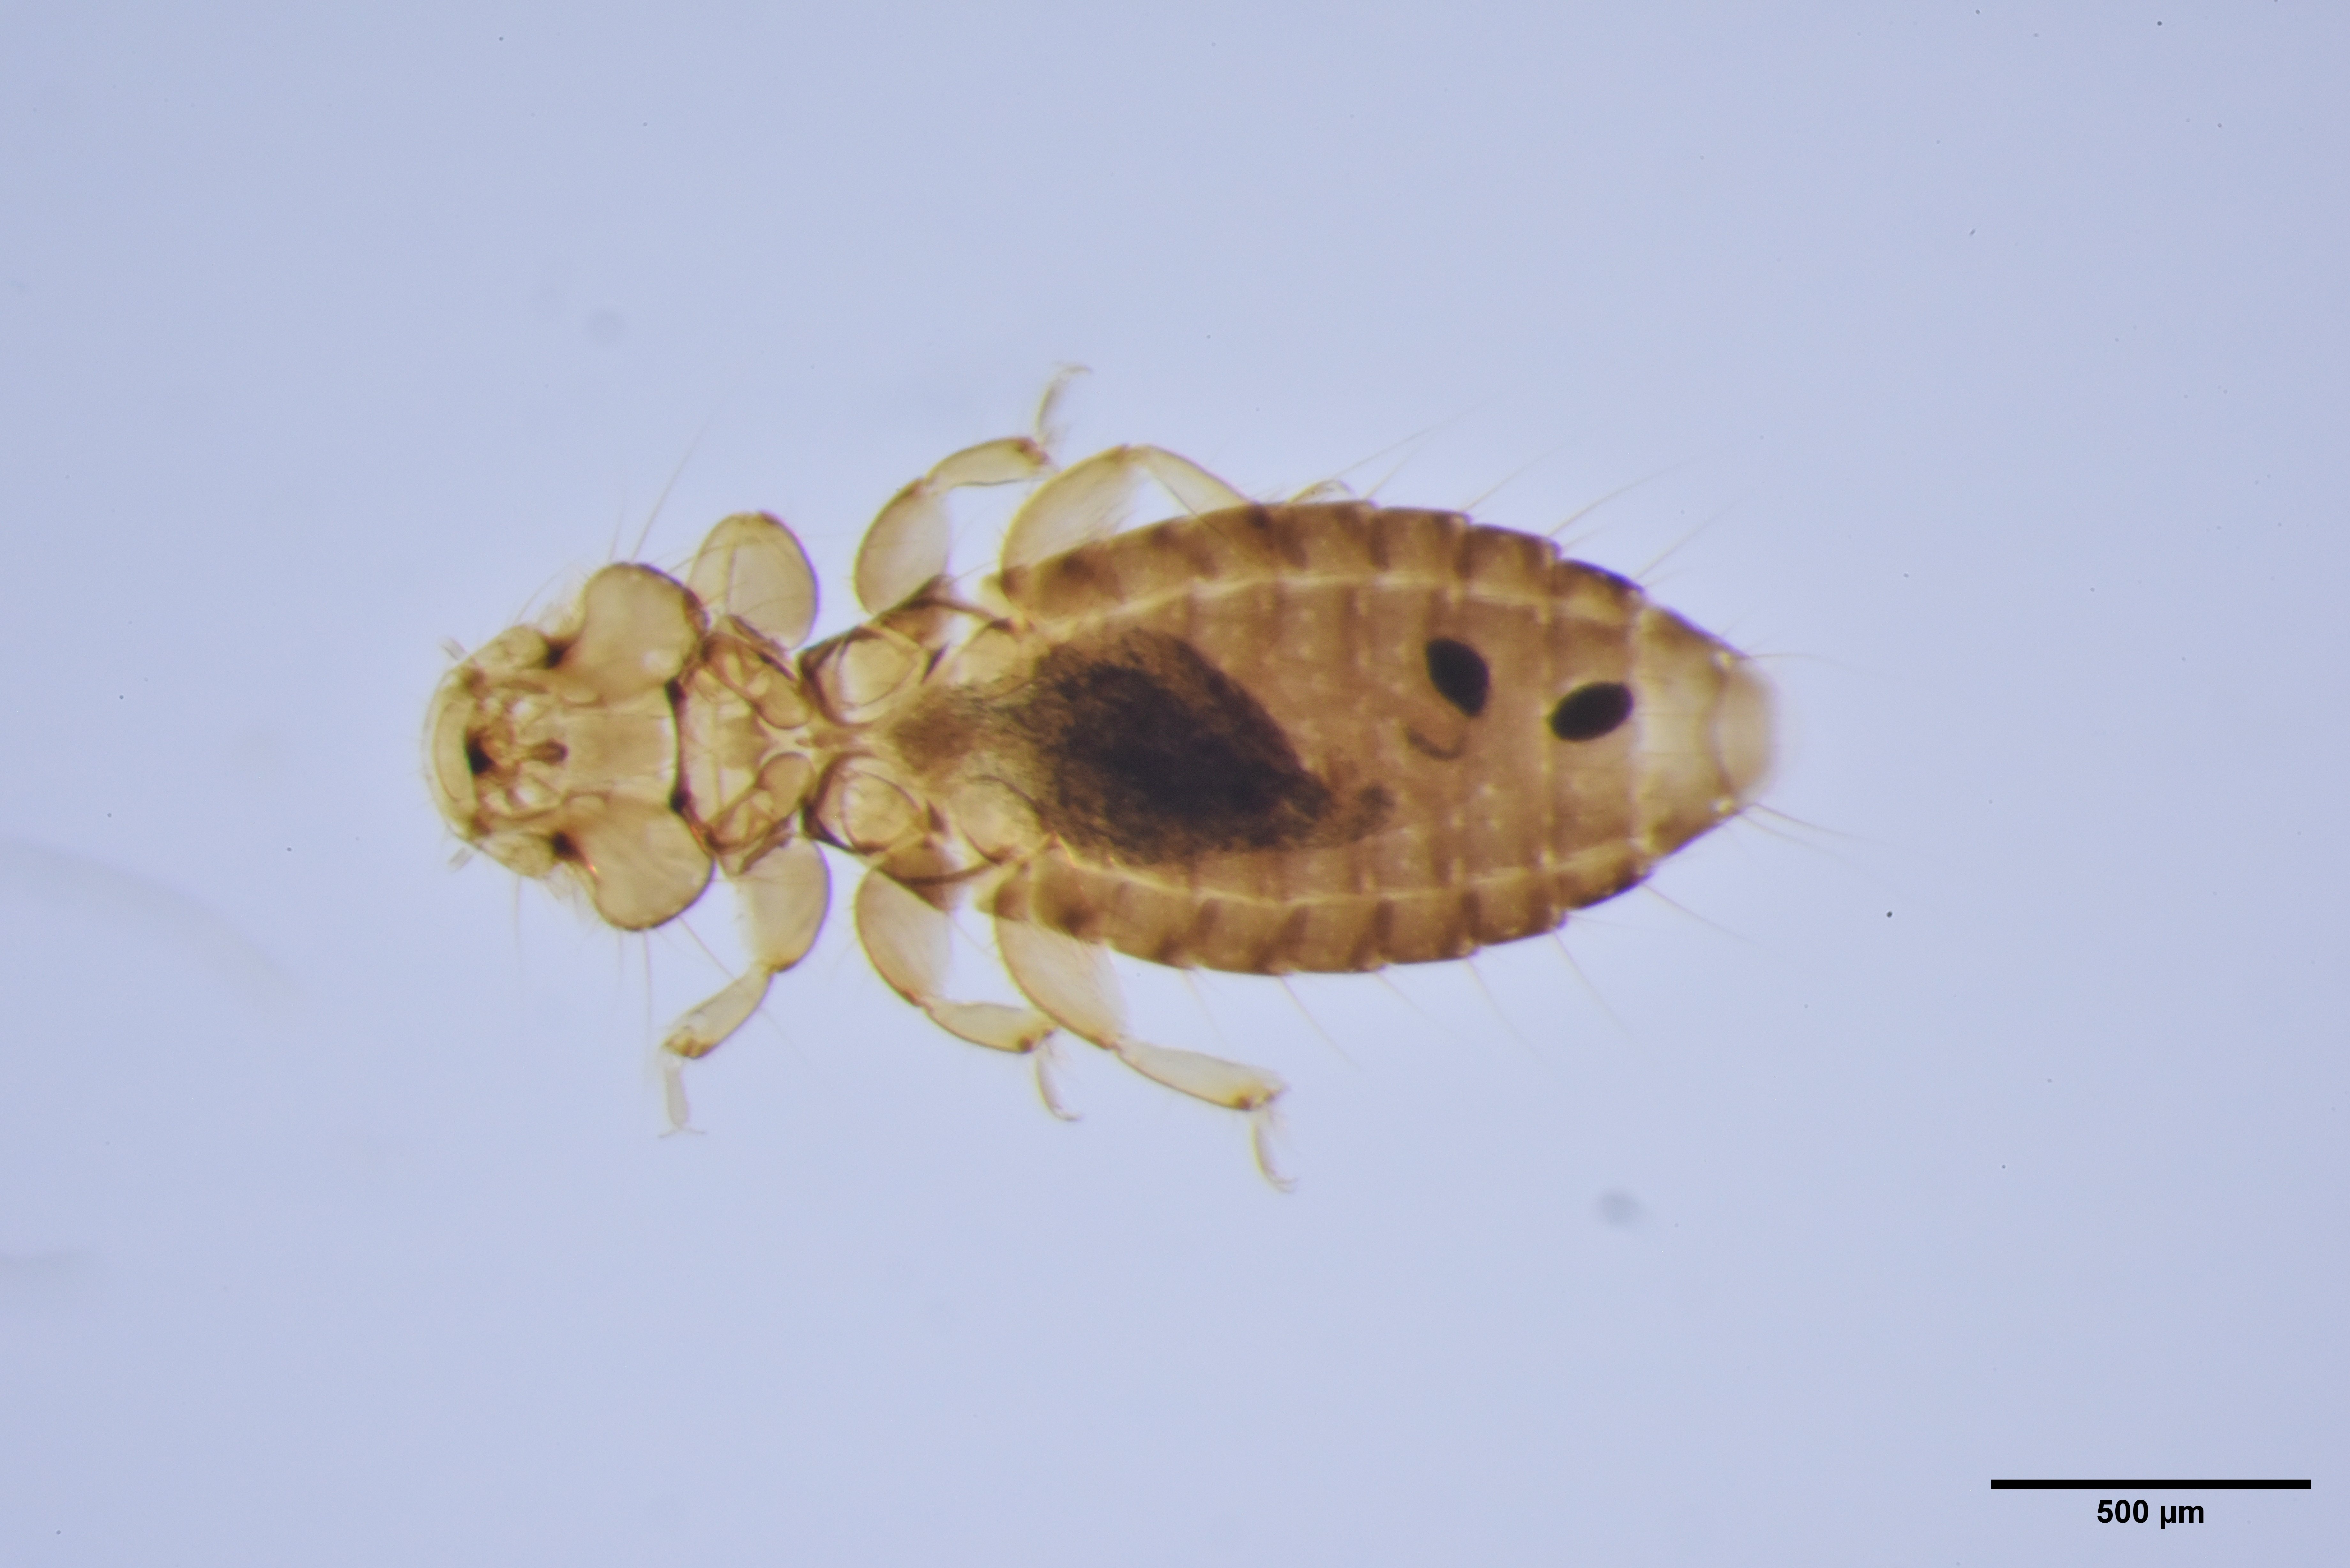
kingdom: Animalia
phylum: Arthropoda
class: Insecta
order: Psocodea
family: Ancistronidae
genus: Actornithophilus
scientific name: Actornithophilus limosae
